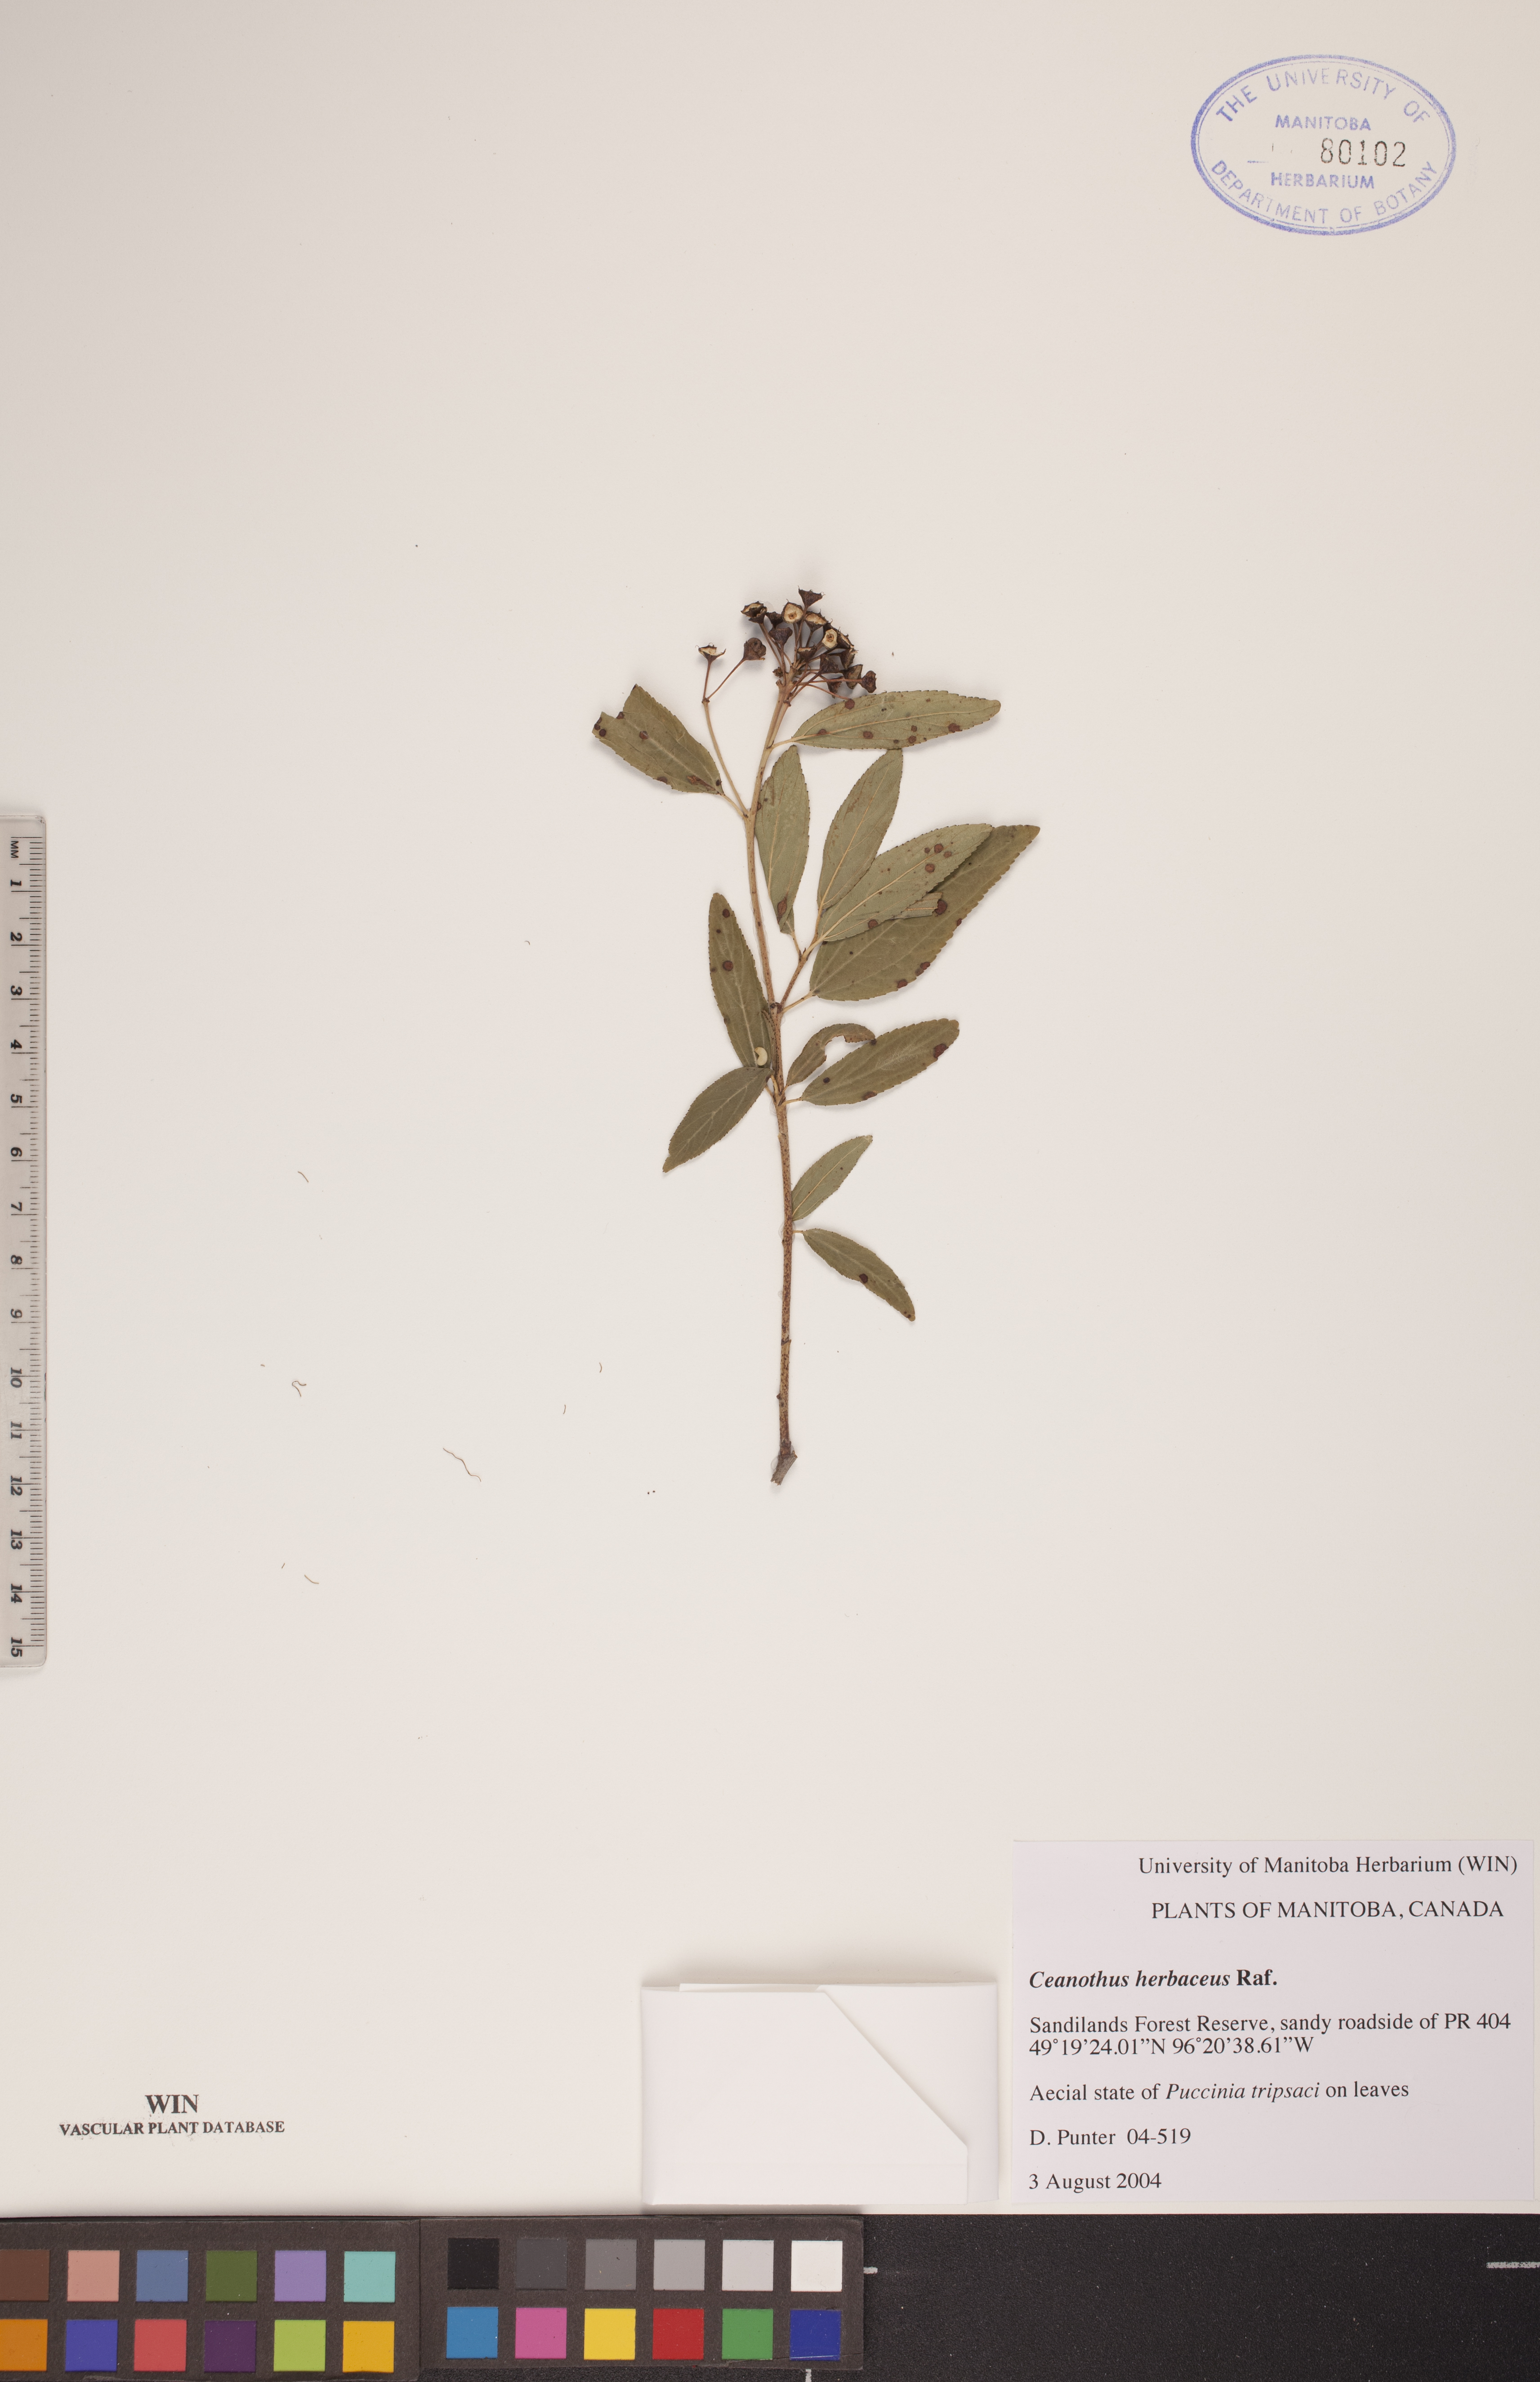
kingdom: Plantae
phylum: Tracheophyta
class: Magnoliopsida
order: Rosales
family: Rhamnaceae
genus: Ceanothus
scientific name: Ceanothus herbaceus
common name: Inland ceanothus
